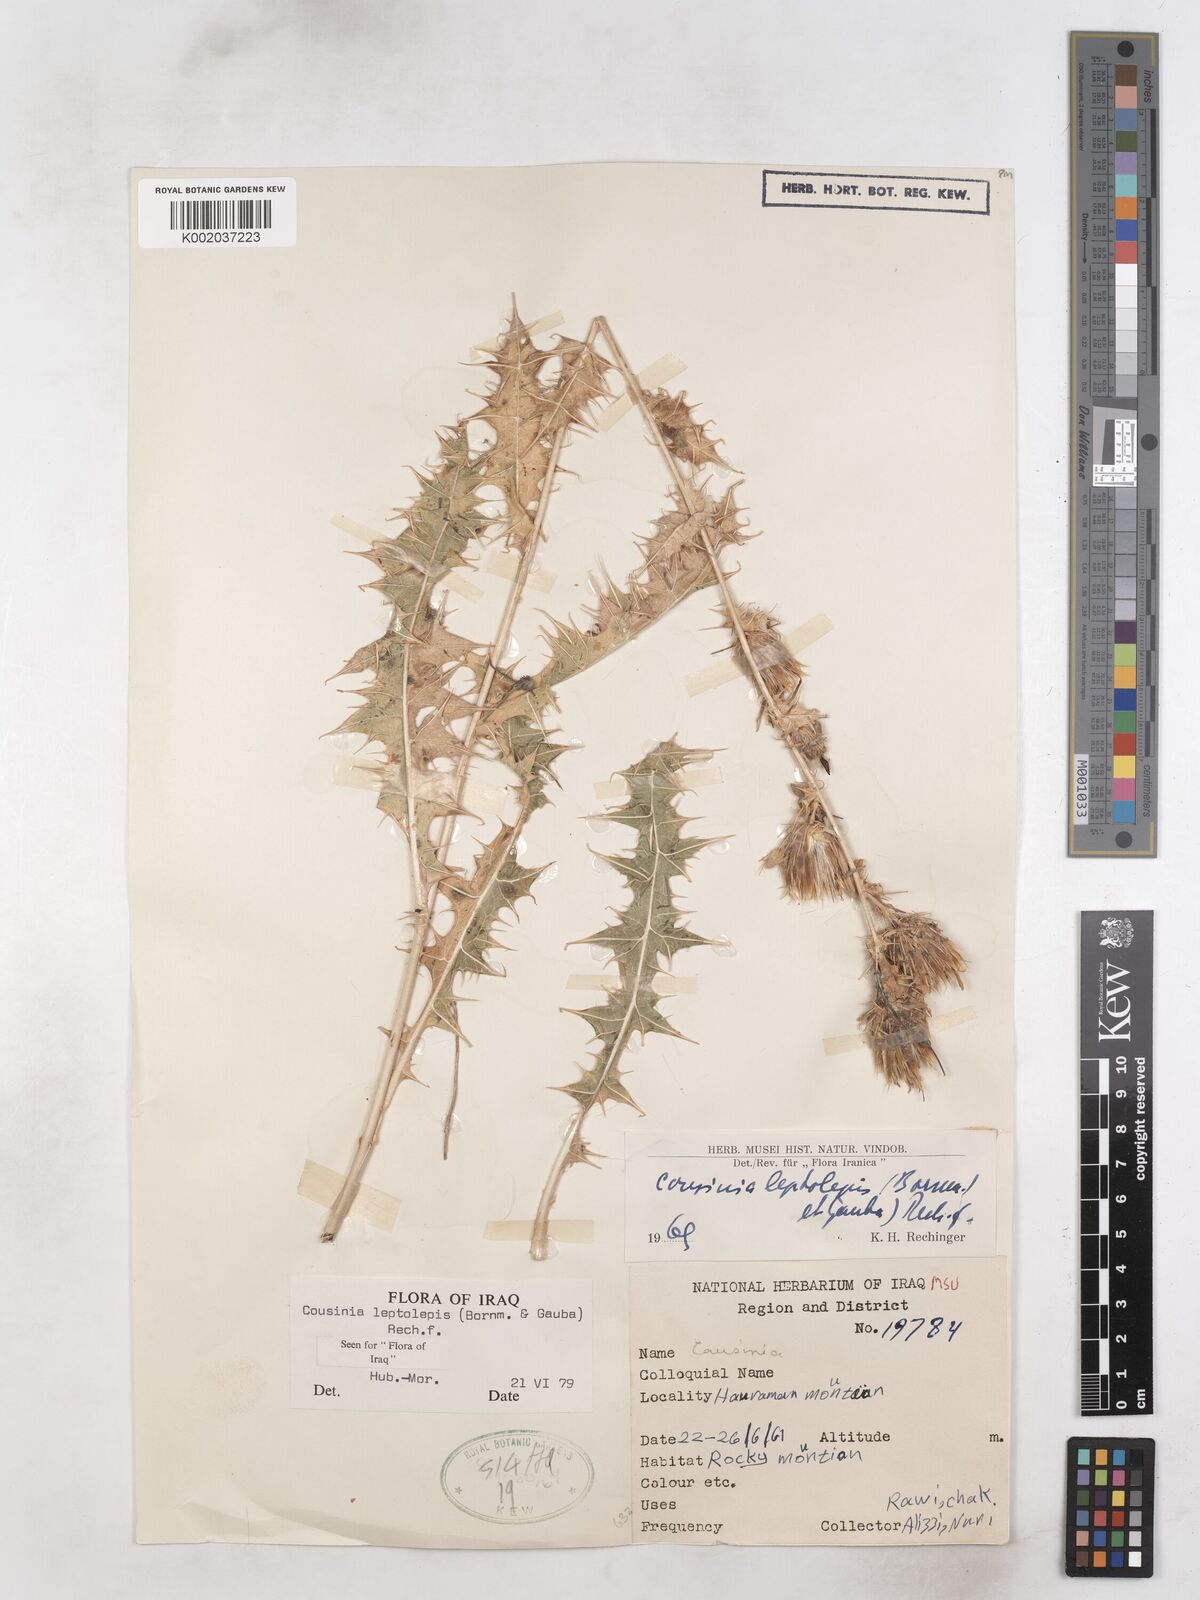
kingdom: Plantae
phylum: Tracheophyta
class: Magnoliopsida
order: Asterales
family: Asteraceae
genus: Cousinia
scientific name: Cousinia leptolepis
